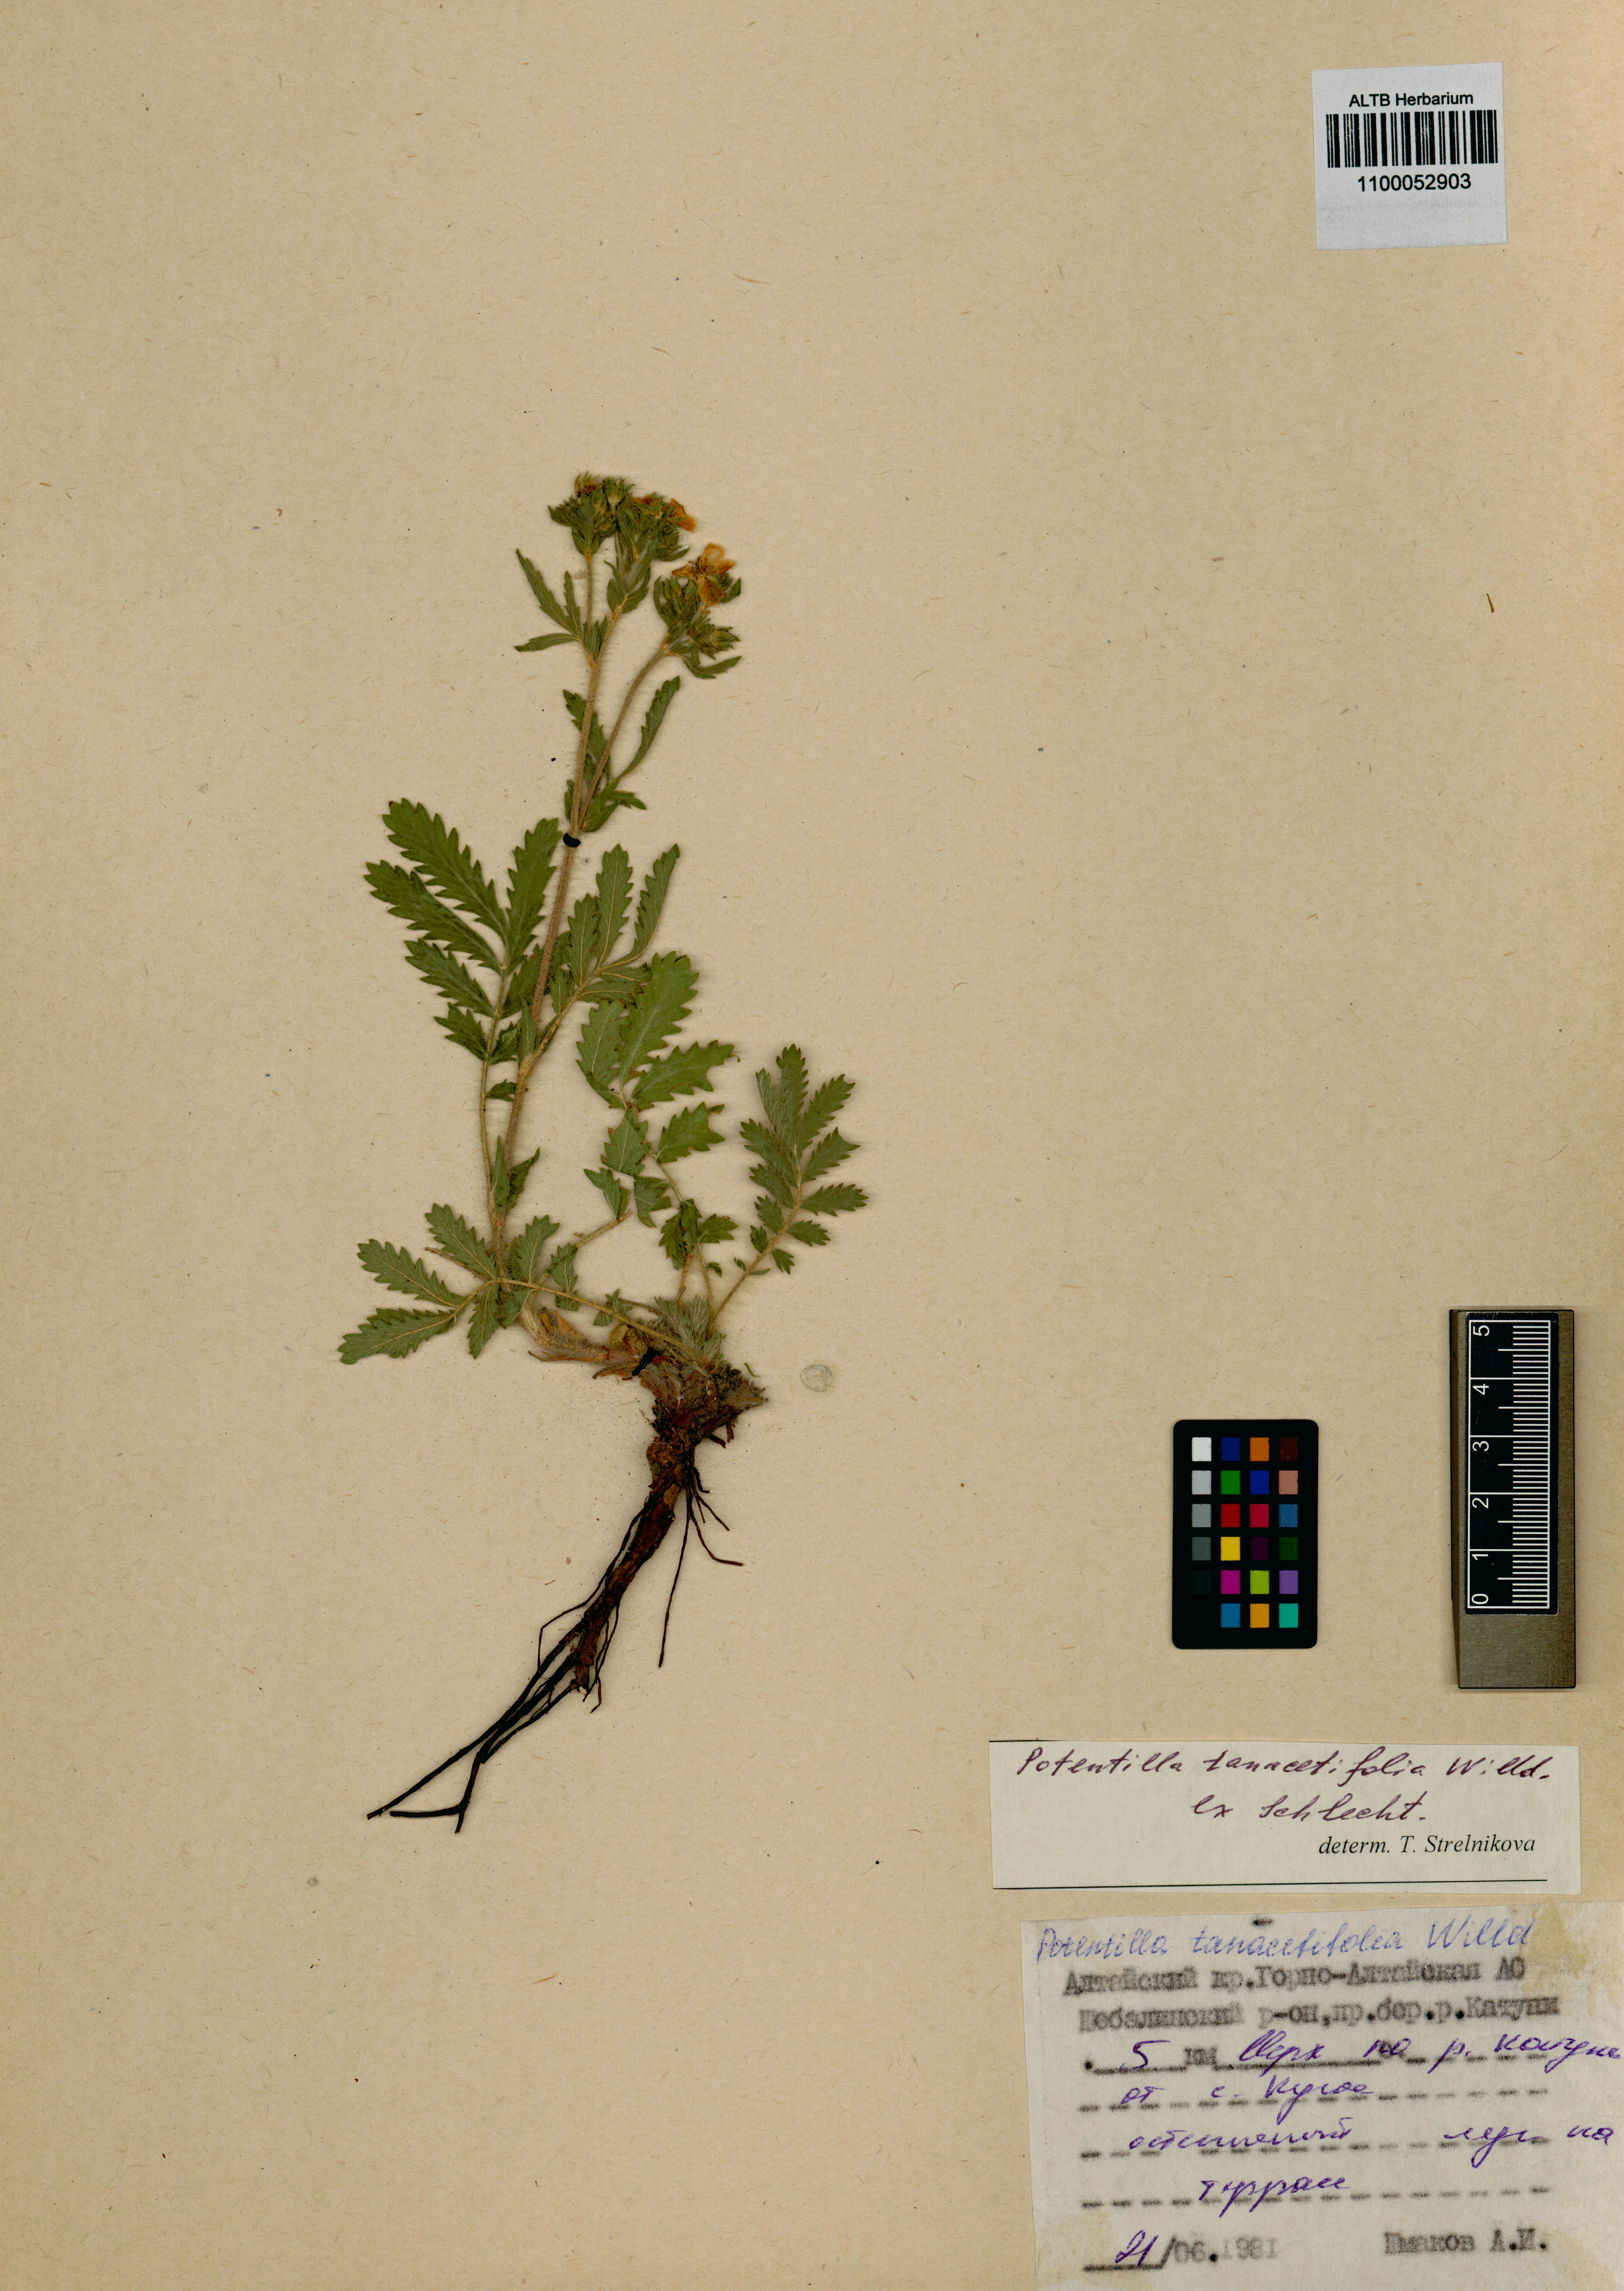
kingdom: Plantae
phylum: Tracheophyta
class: Magnoliopsida
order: Rosales
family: Rosaceae
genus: Potentilla
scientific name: Potentilla tanacetifolia
